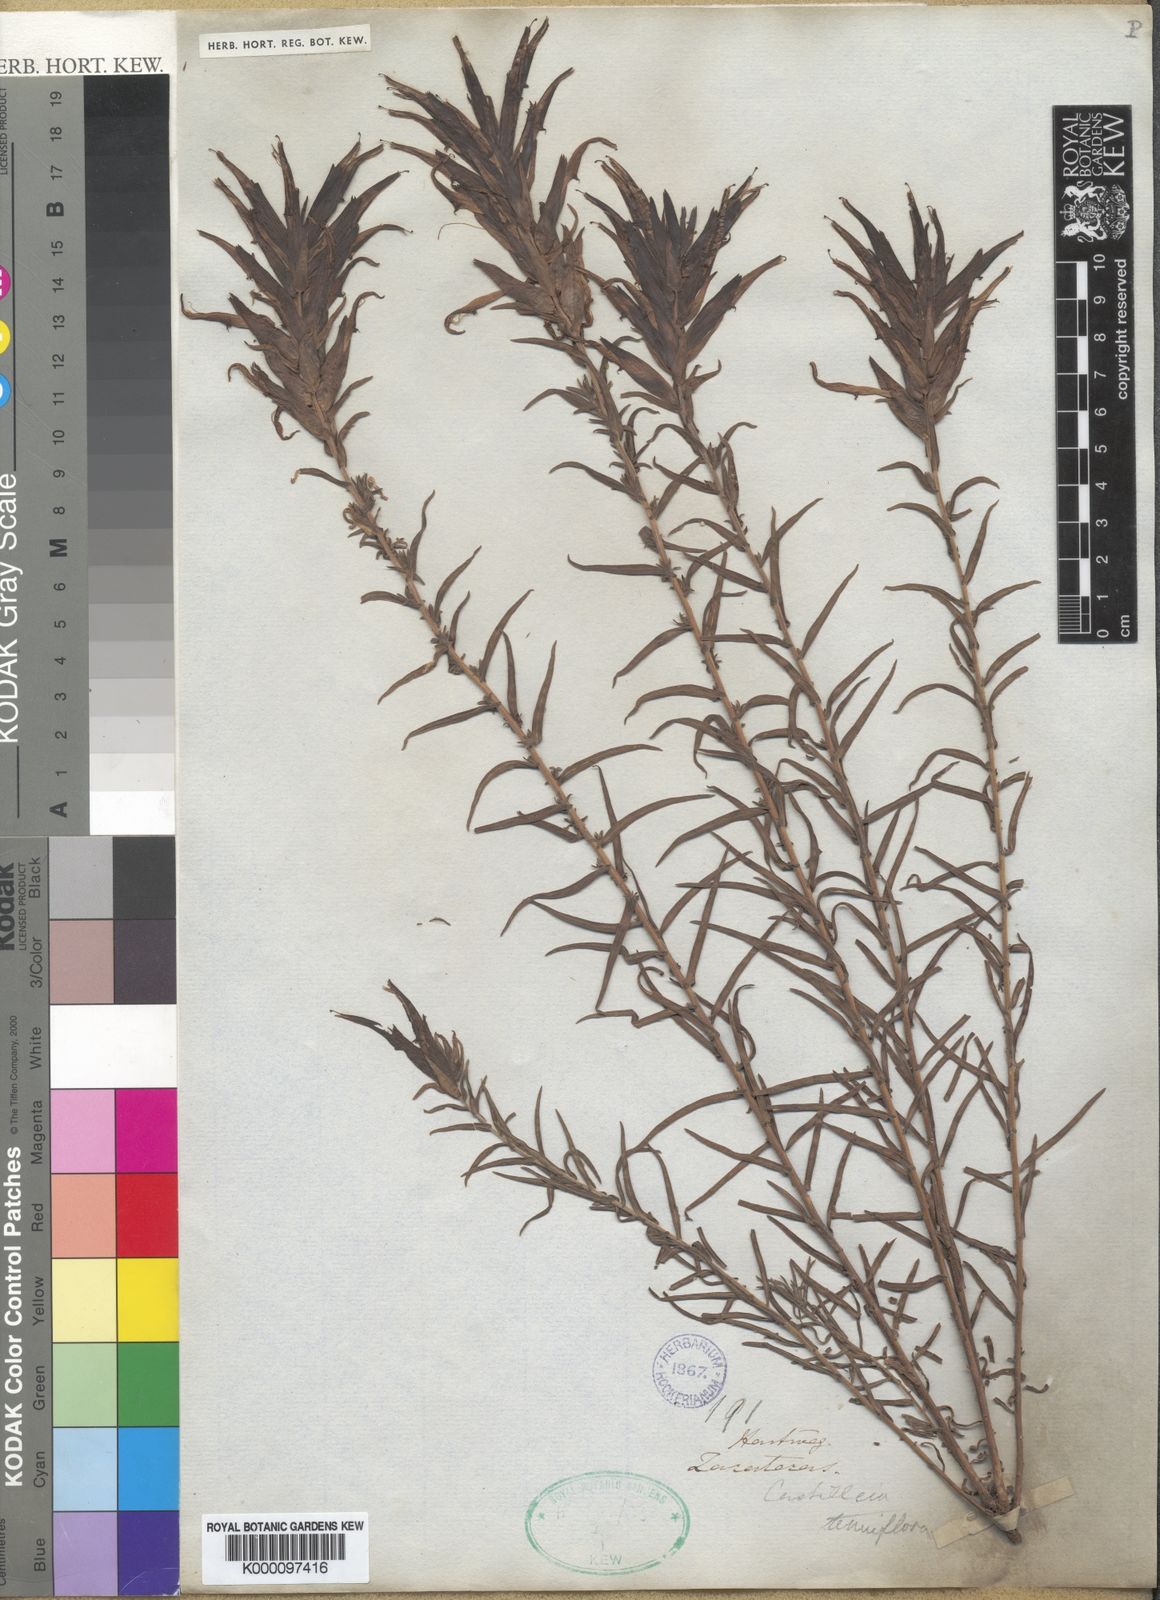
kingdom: Plantae
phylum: Tracheophyta
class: Magnoliopsida
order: Lamiales
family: Orobanchaceae
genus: Castilleja
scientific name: Castilleja tenuiflora
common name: Santa catalina indian paintbrush
